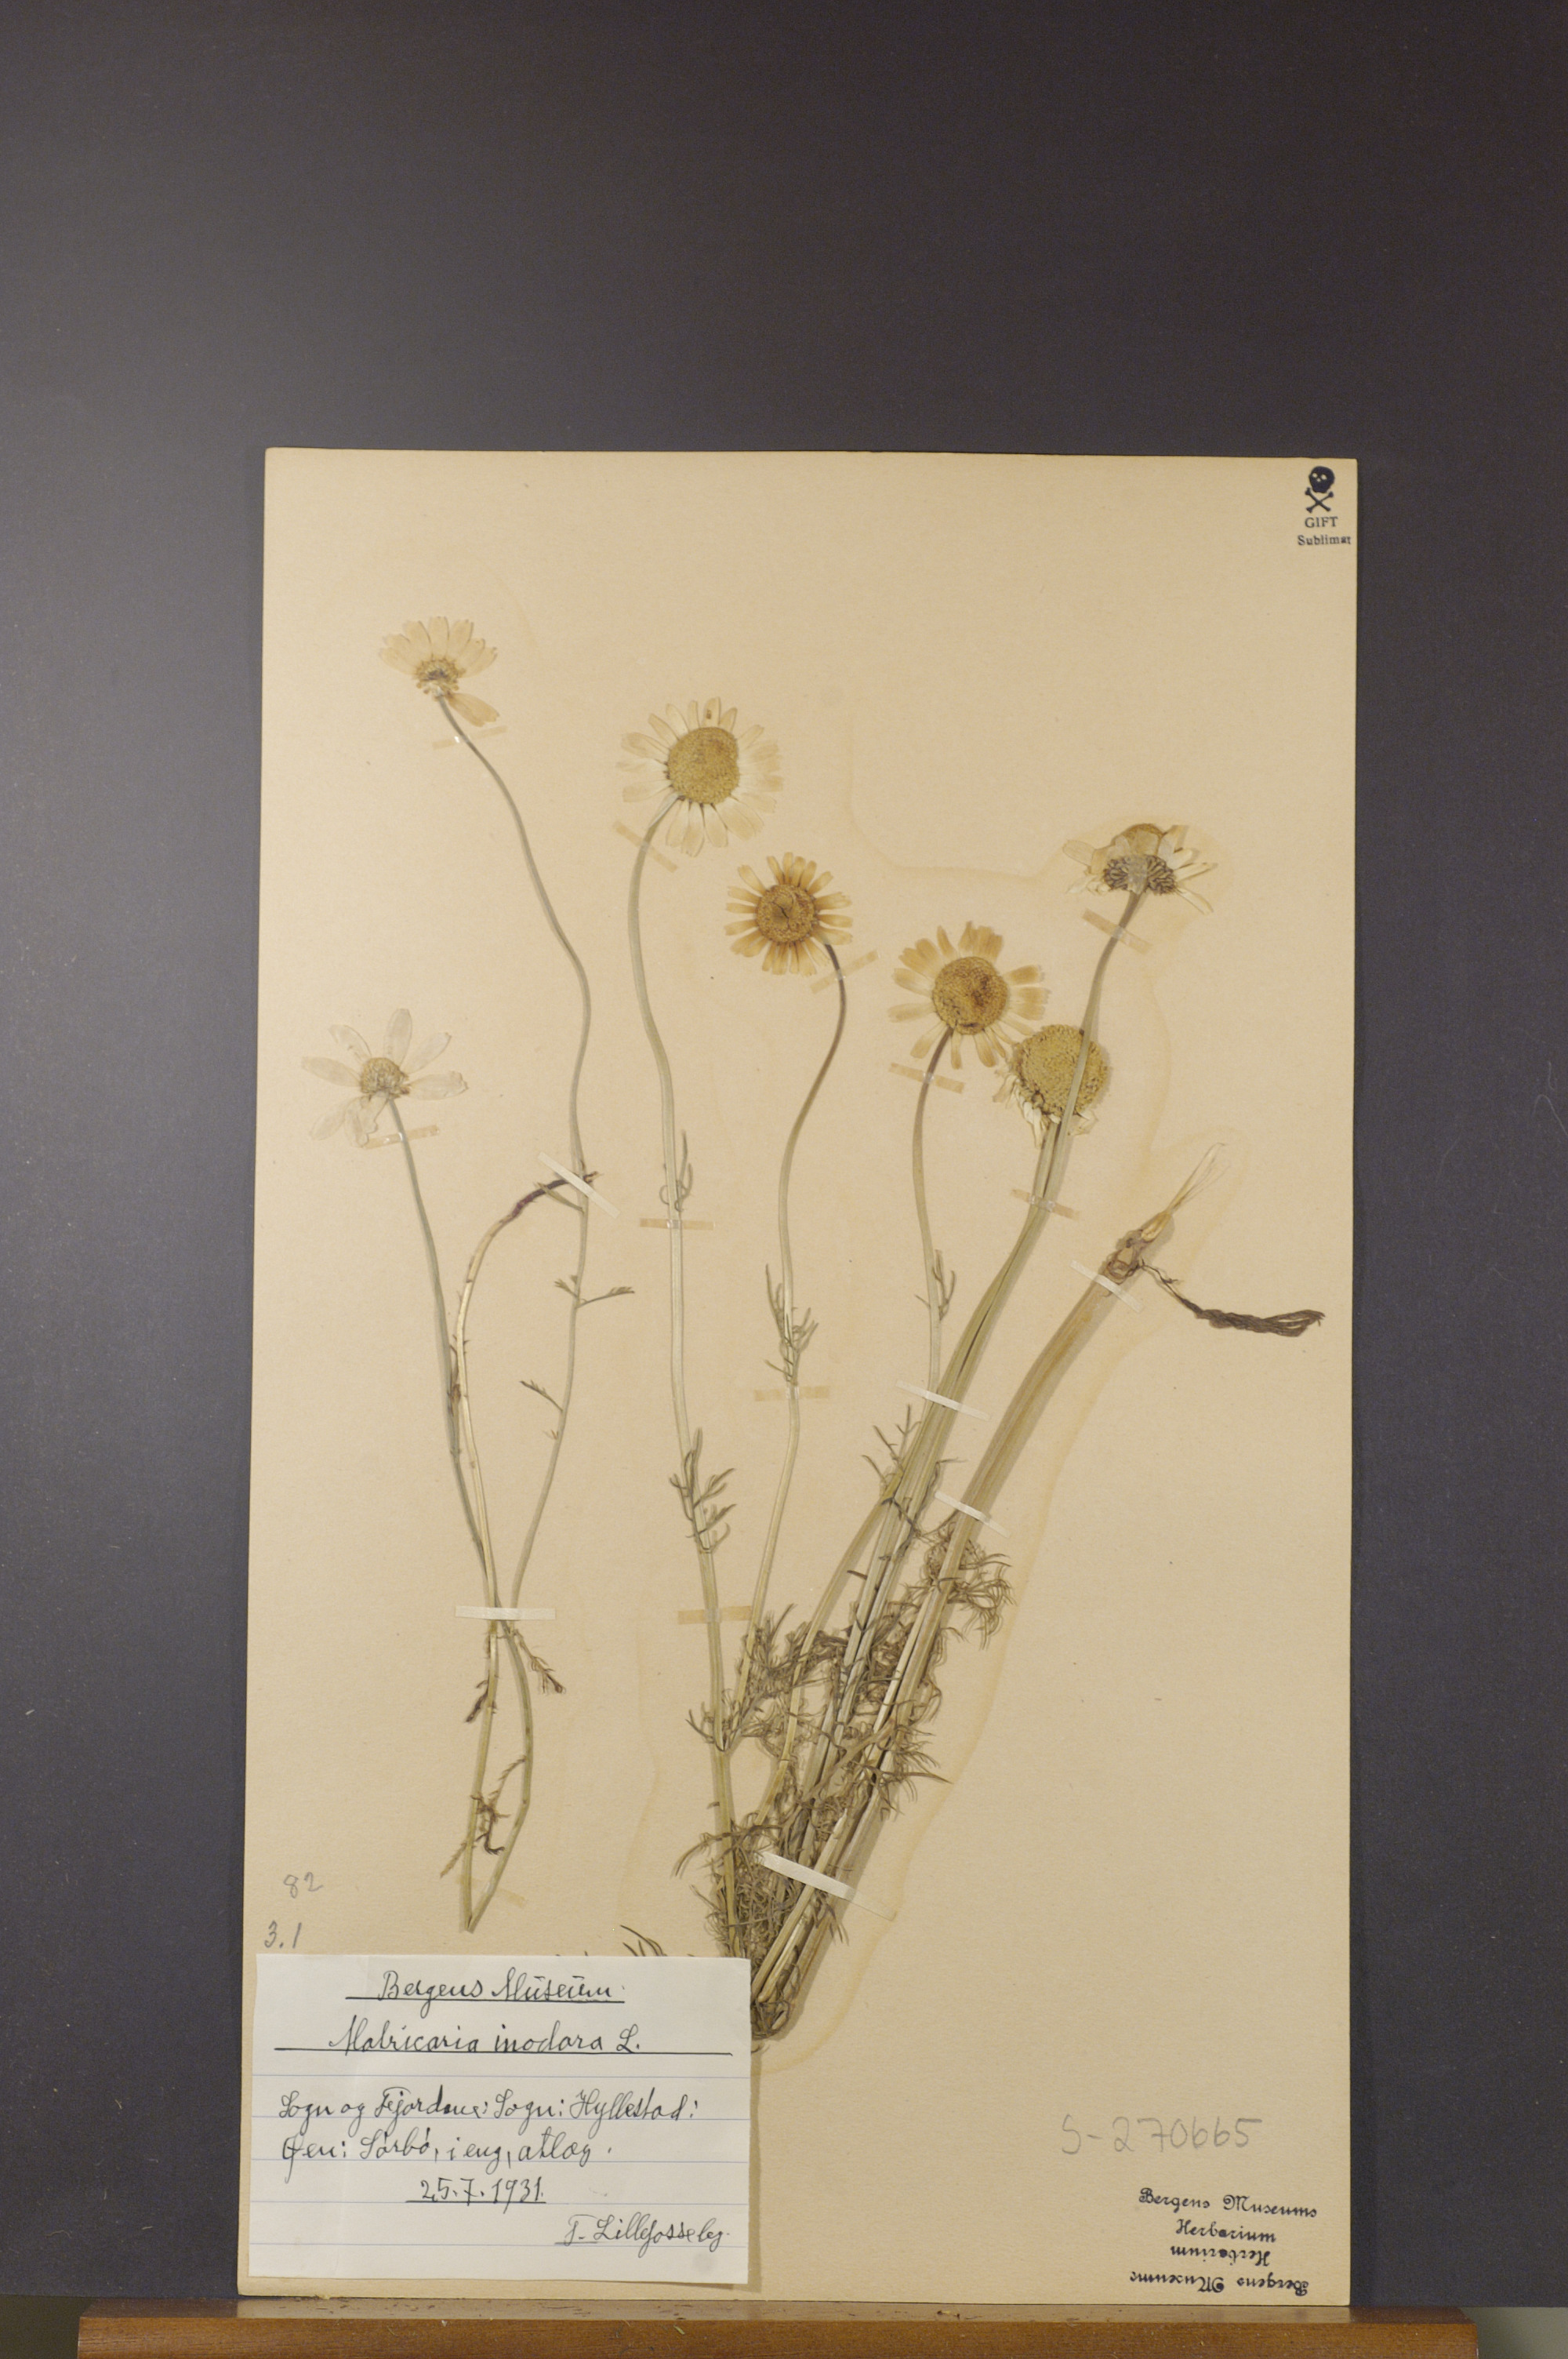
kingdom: Plantae
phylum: Tracheophyta
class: Magnoliopsida
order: Asterales
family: Asteraceae
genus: Tripleurospermum
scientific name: Tripleurospermum inodorum
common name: Scentless mayweed
